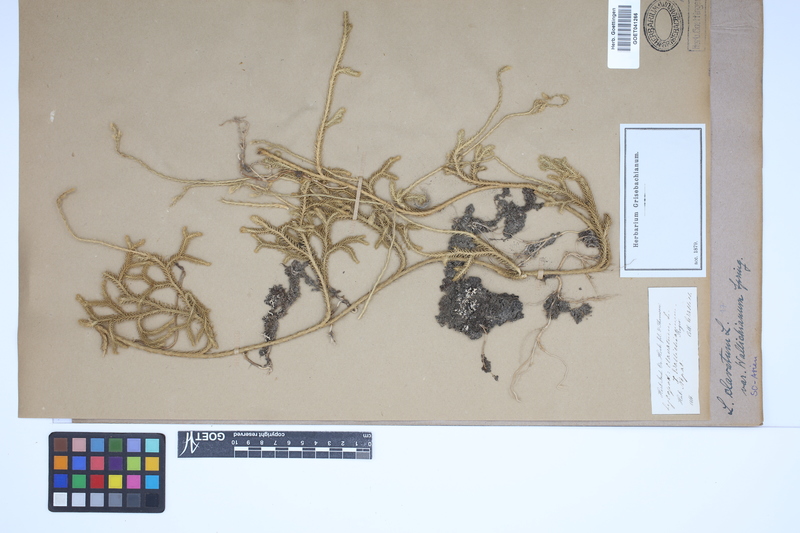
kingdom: Plantae
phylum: Tracheophyta
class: Lycopodiopsida
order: Lycopodiales
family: Lycopodiaceae
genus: Lycopodium
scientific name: Lycopodium clavatum
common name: Stag's-horn clubmoss
